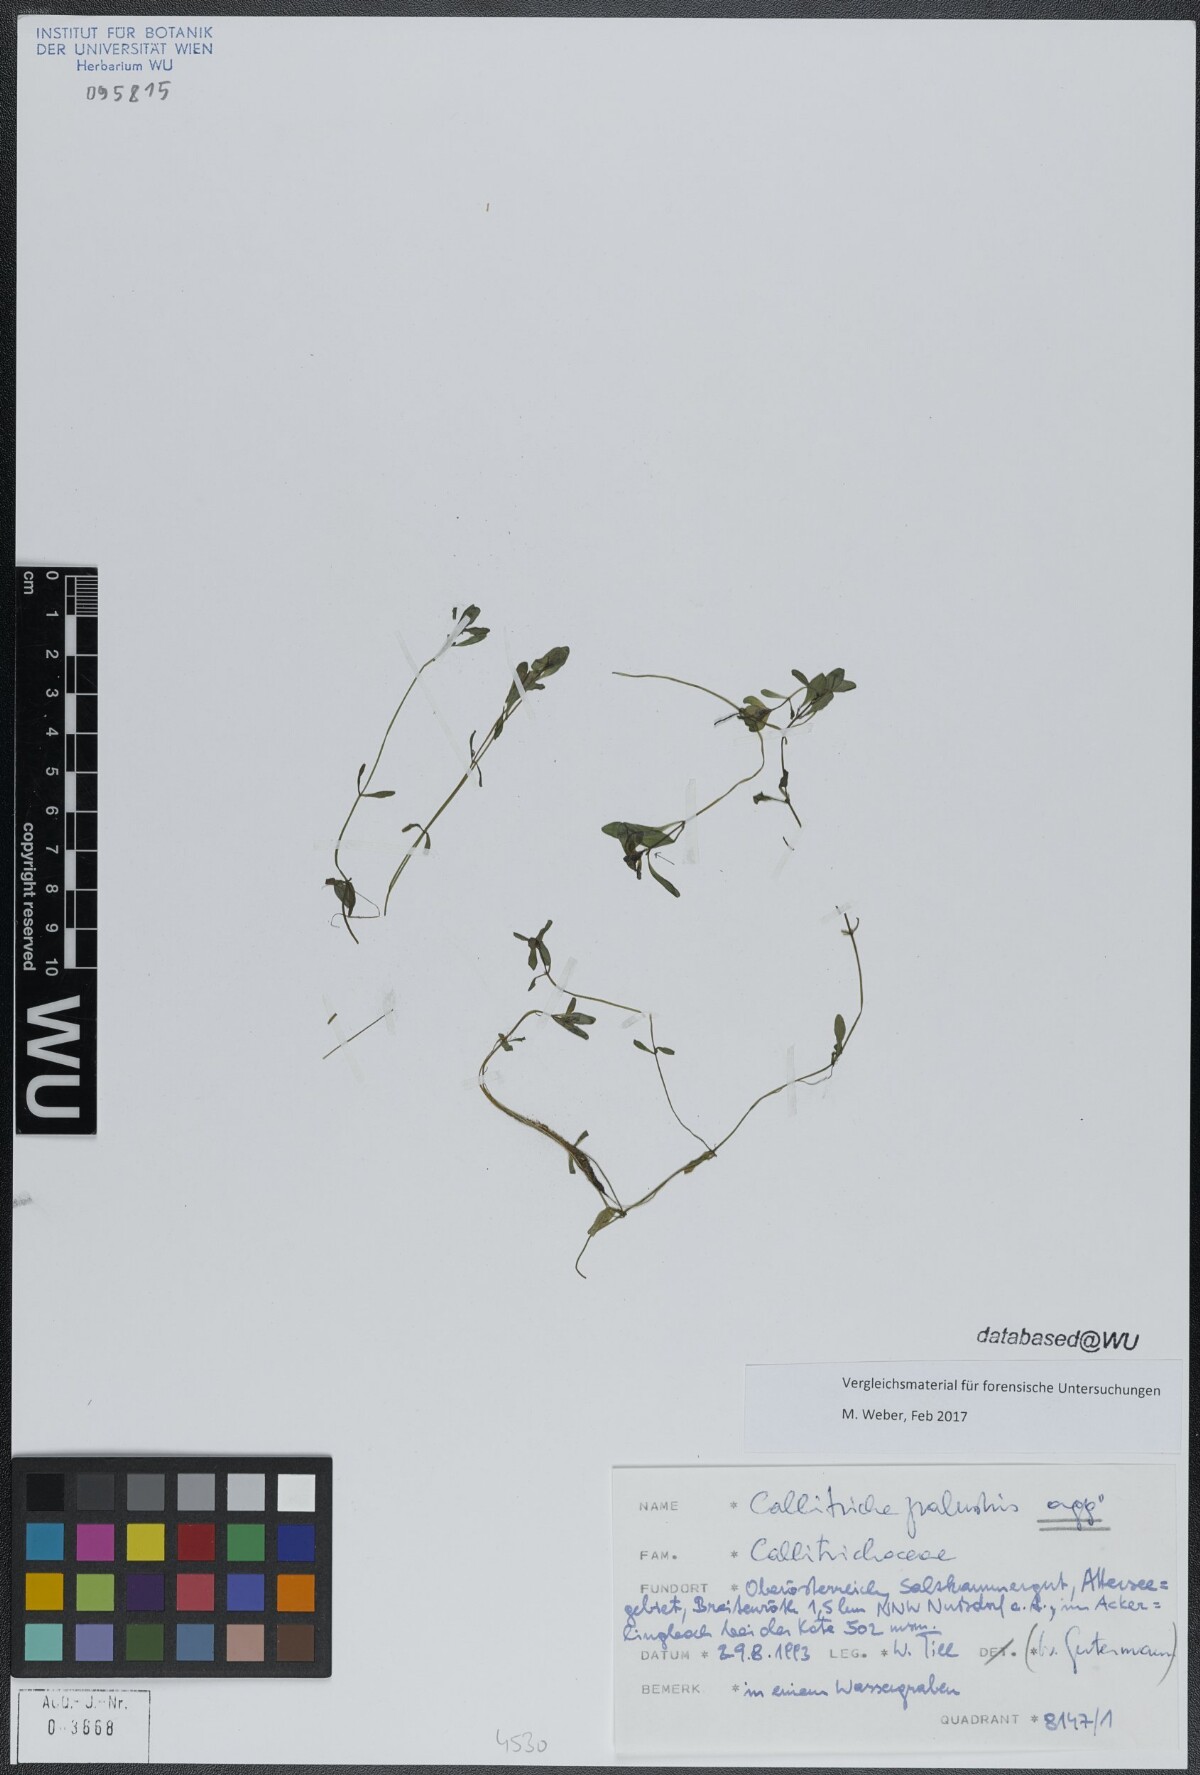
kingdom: Plantae
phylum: Tracheophyta
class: Magnoliopsida
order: Lamiales
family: Plantaginaceae
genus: Callitriche
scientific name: Callitriche palustris
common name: Spring water-starwort
